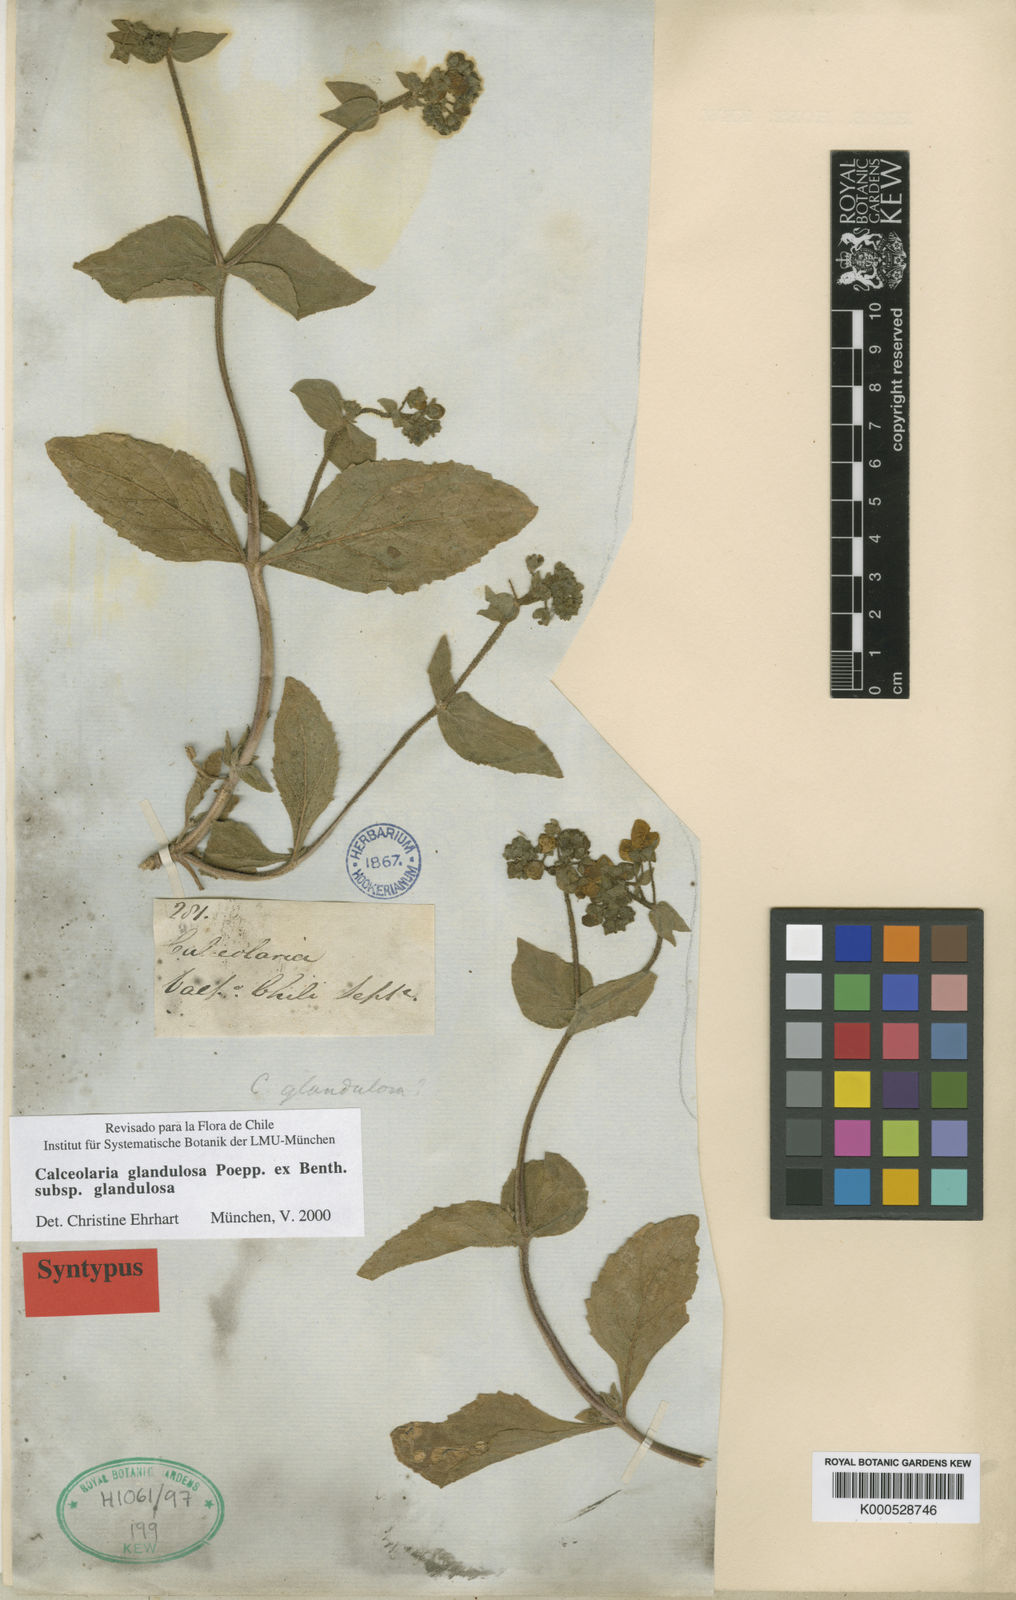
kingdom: Plantae
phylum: Tracheophyta
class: Magnoliopsida
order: Lamiales
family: Calceolariaceae
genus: Calceolaria
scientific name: Calceolaria glandulosa
